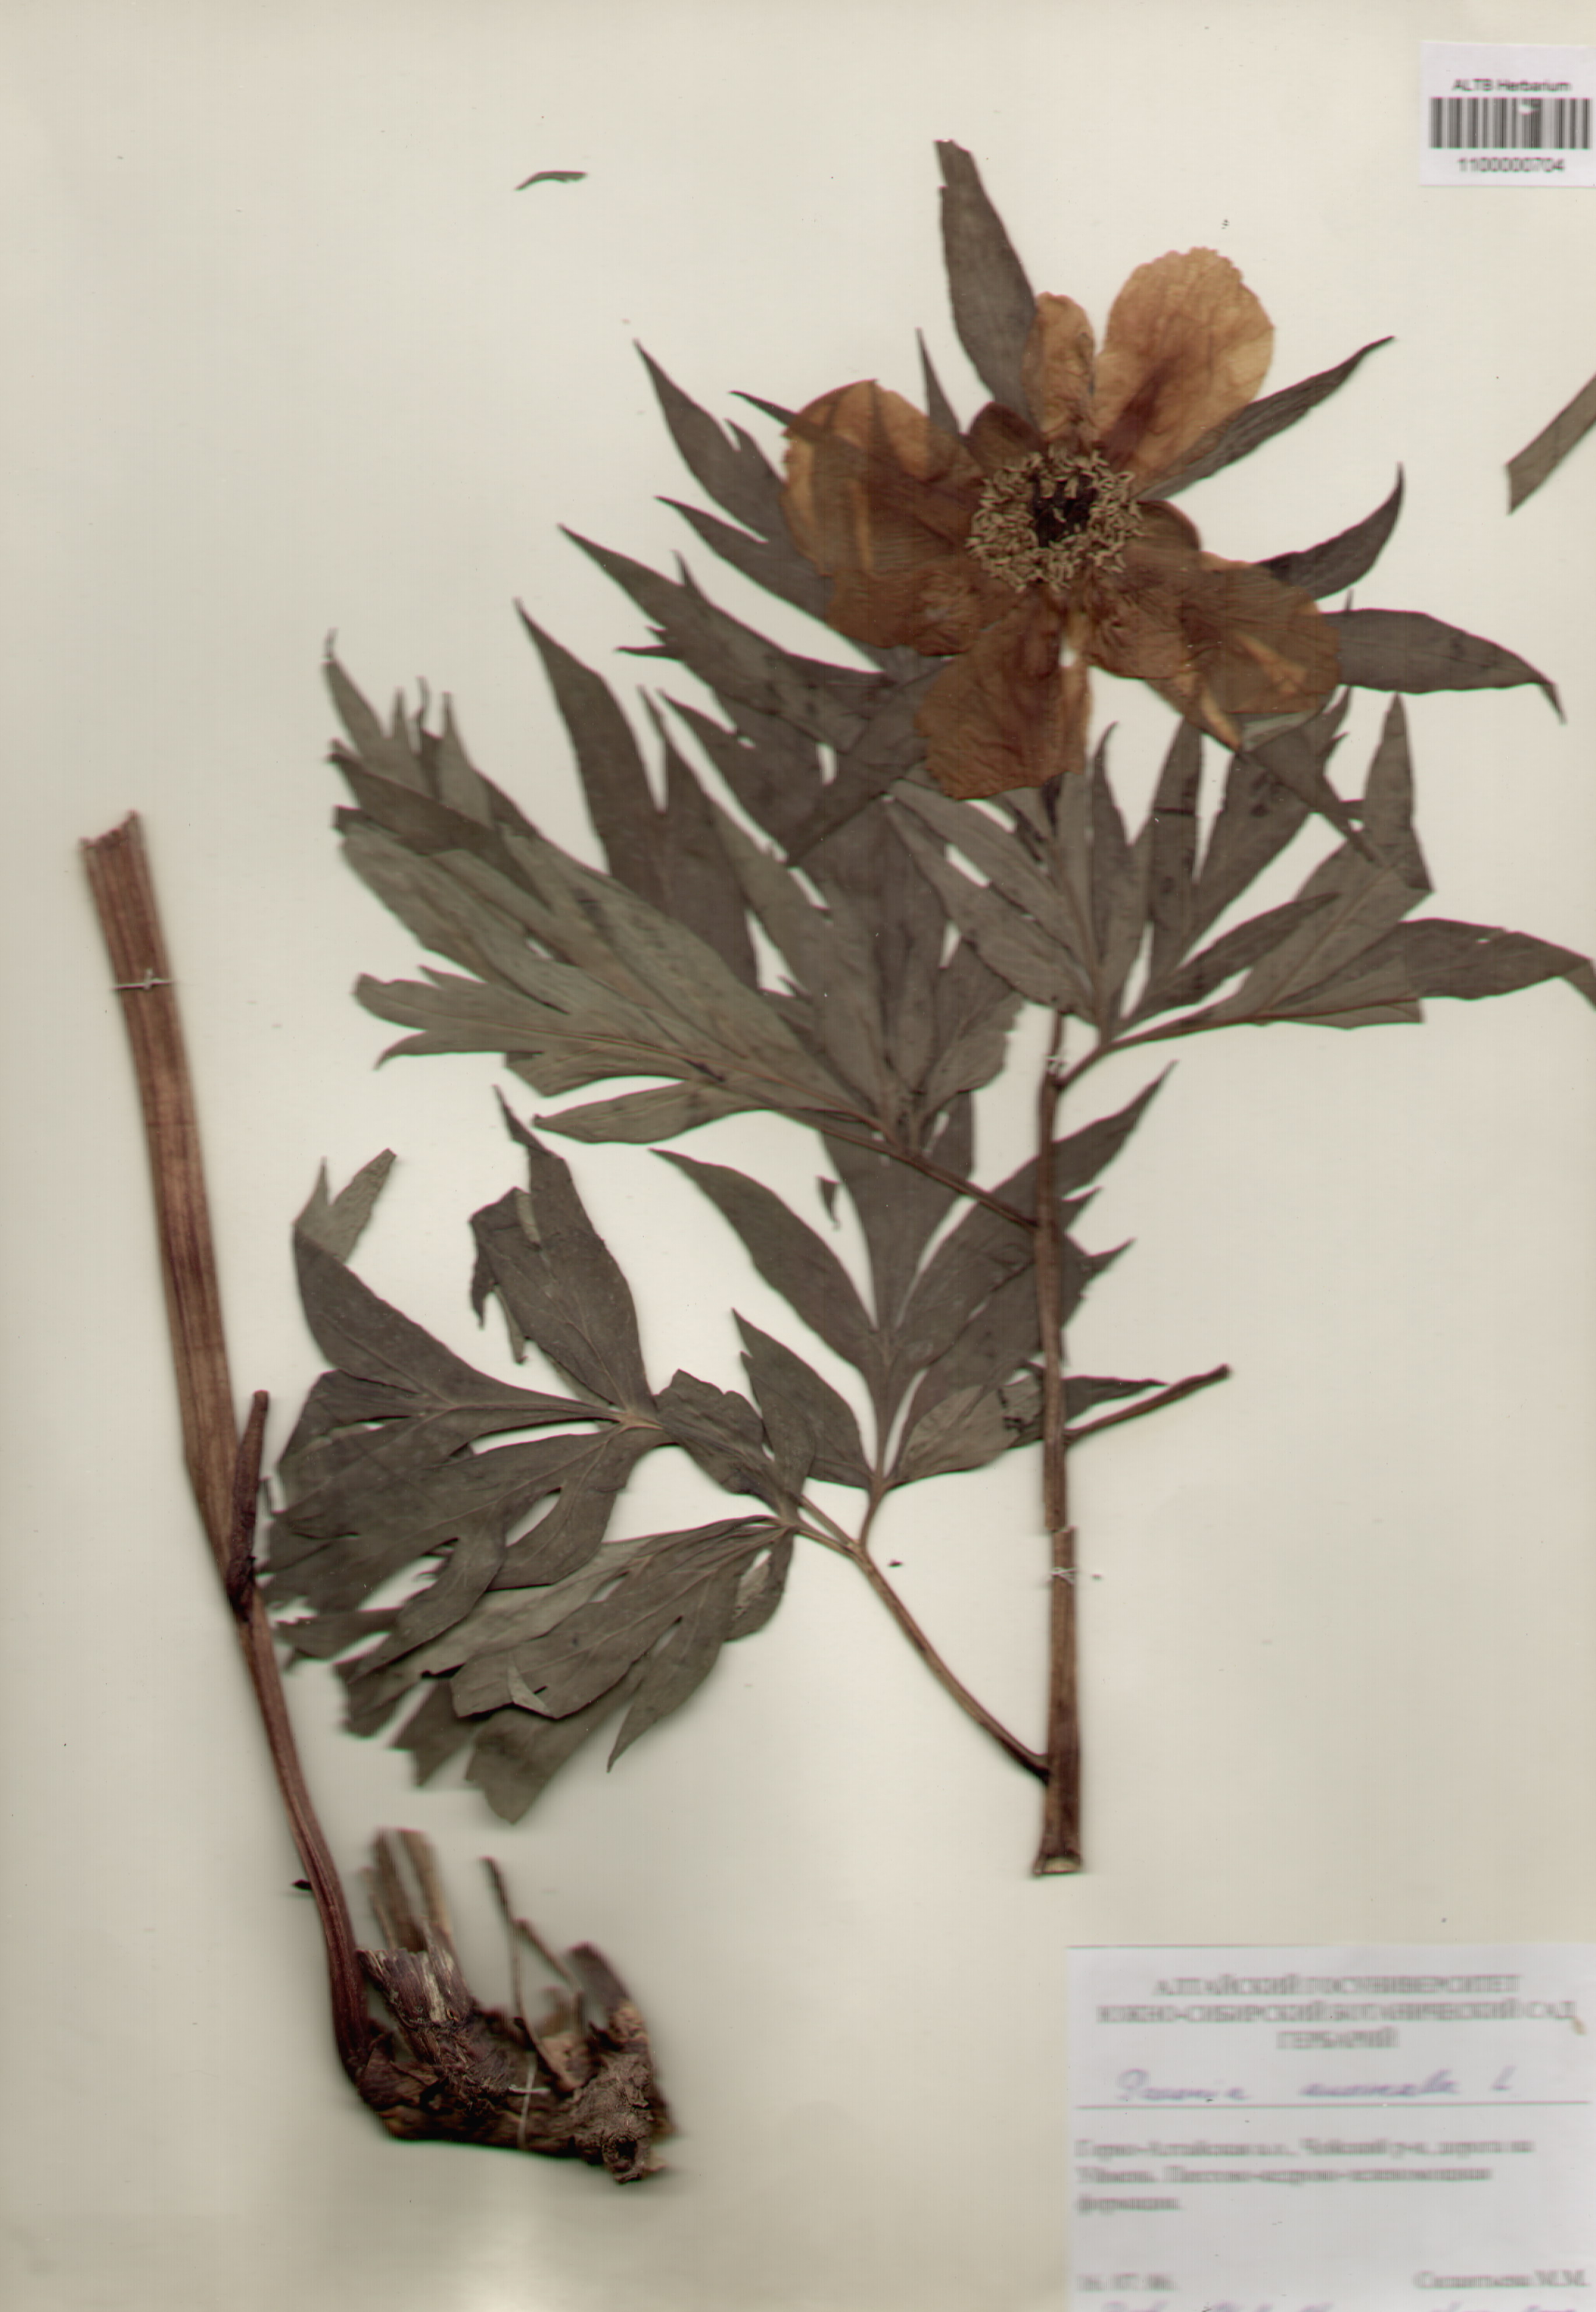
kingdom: Plantae
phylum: Tracheophyta
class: Magnoliopsida
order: Saxifragales
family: Paeoniaceae
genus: Paeonia
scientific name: Paeonia anomala
